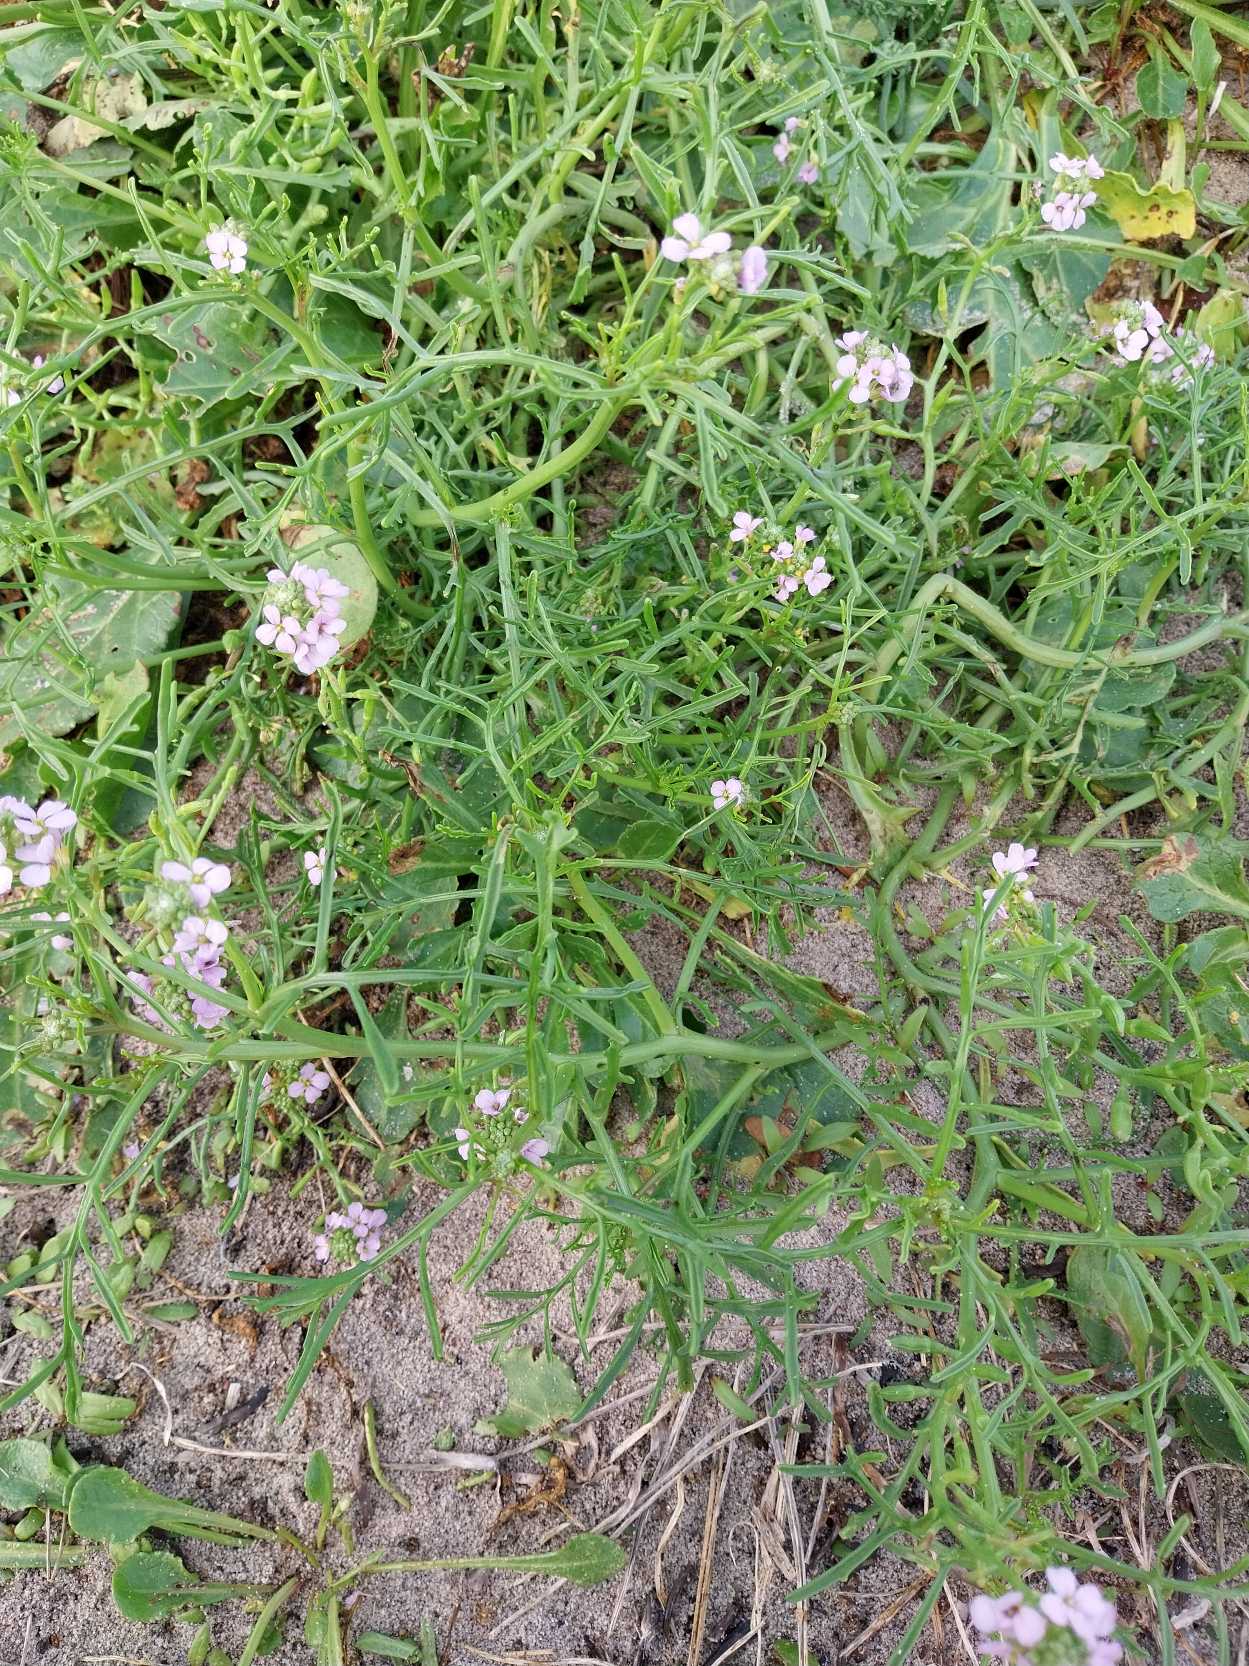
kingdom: Plantae
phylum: Tracheophyta
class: Magnoliopsida
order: Brassicales
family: Brassicaceae
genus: Cakile
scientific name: Cakile maritima
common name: Strandsennep
